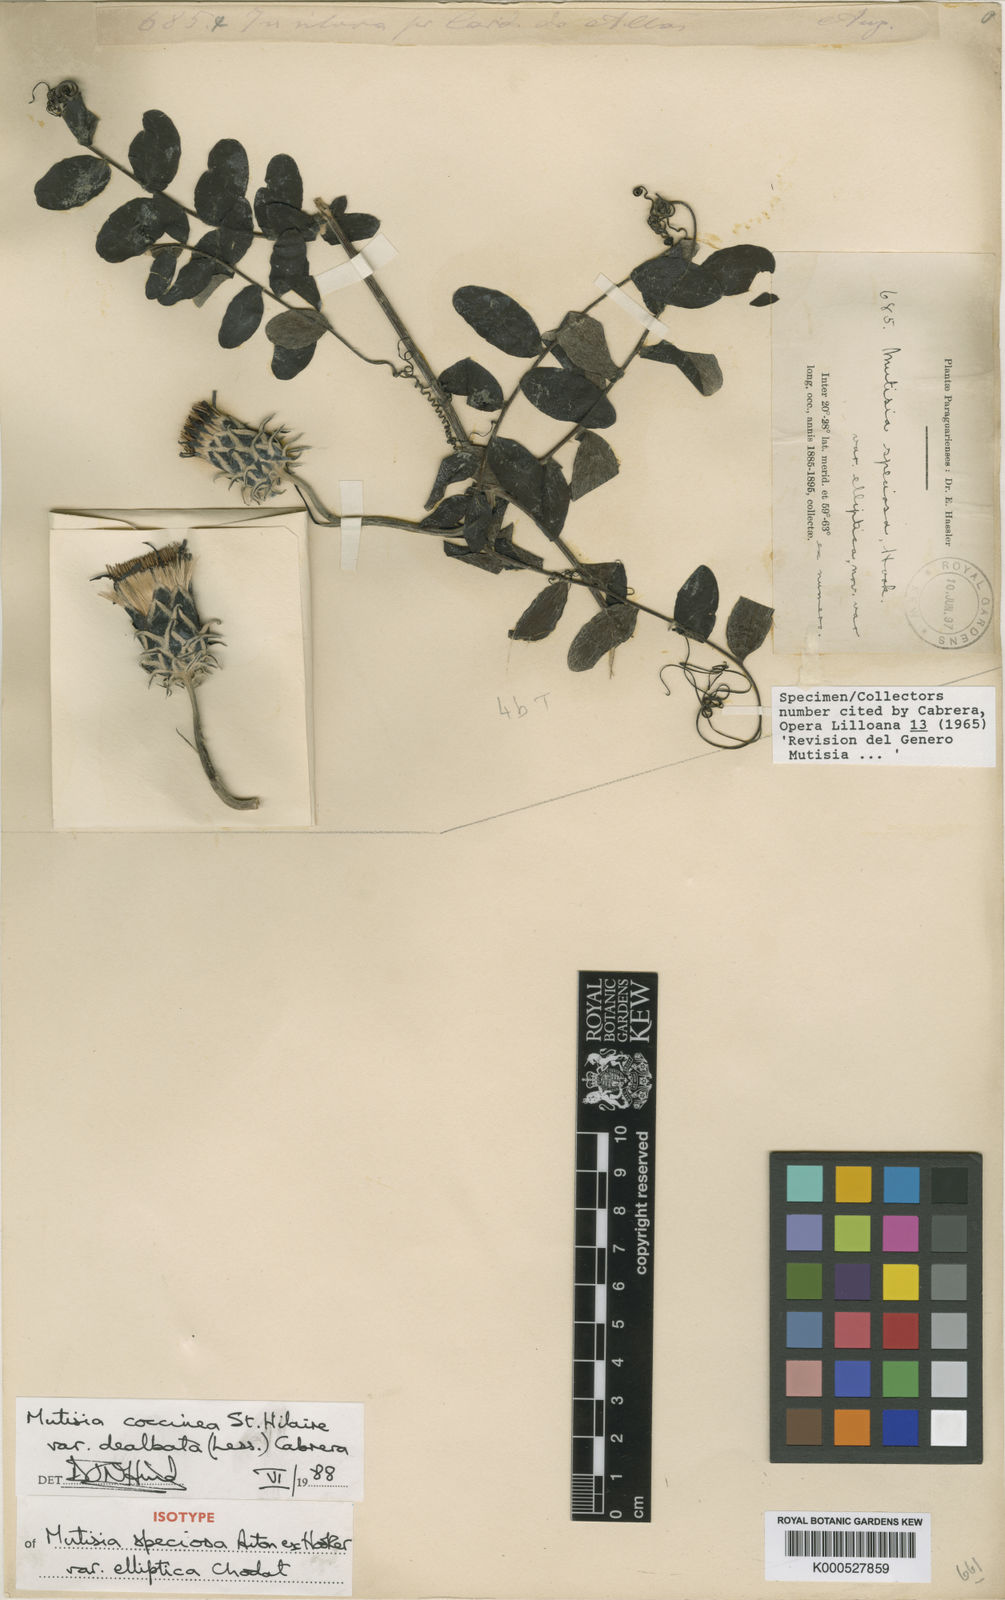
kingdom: Plantae
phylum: Tracheophyta
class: Magnoliopsida
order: Asterales
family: Asteraceae
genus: Mutisia
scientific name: Mutisia coccinea
